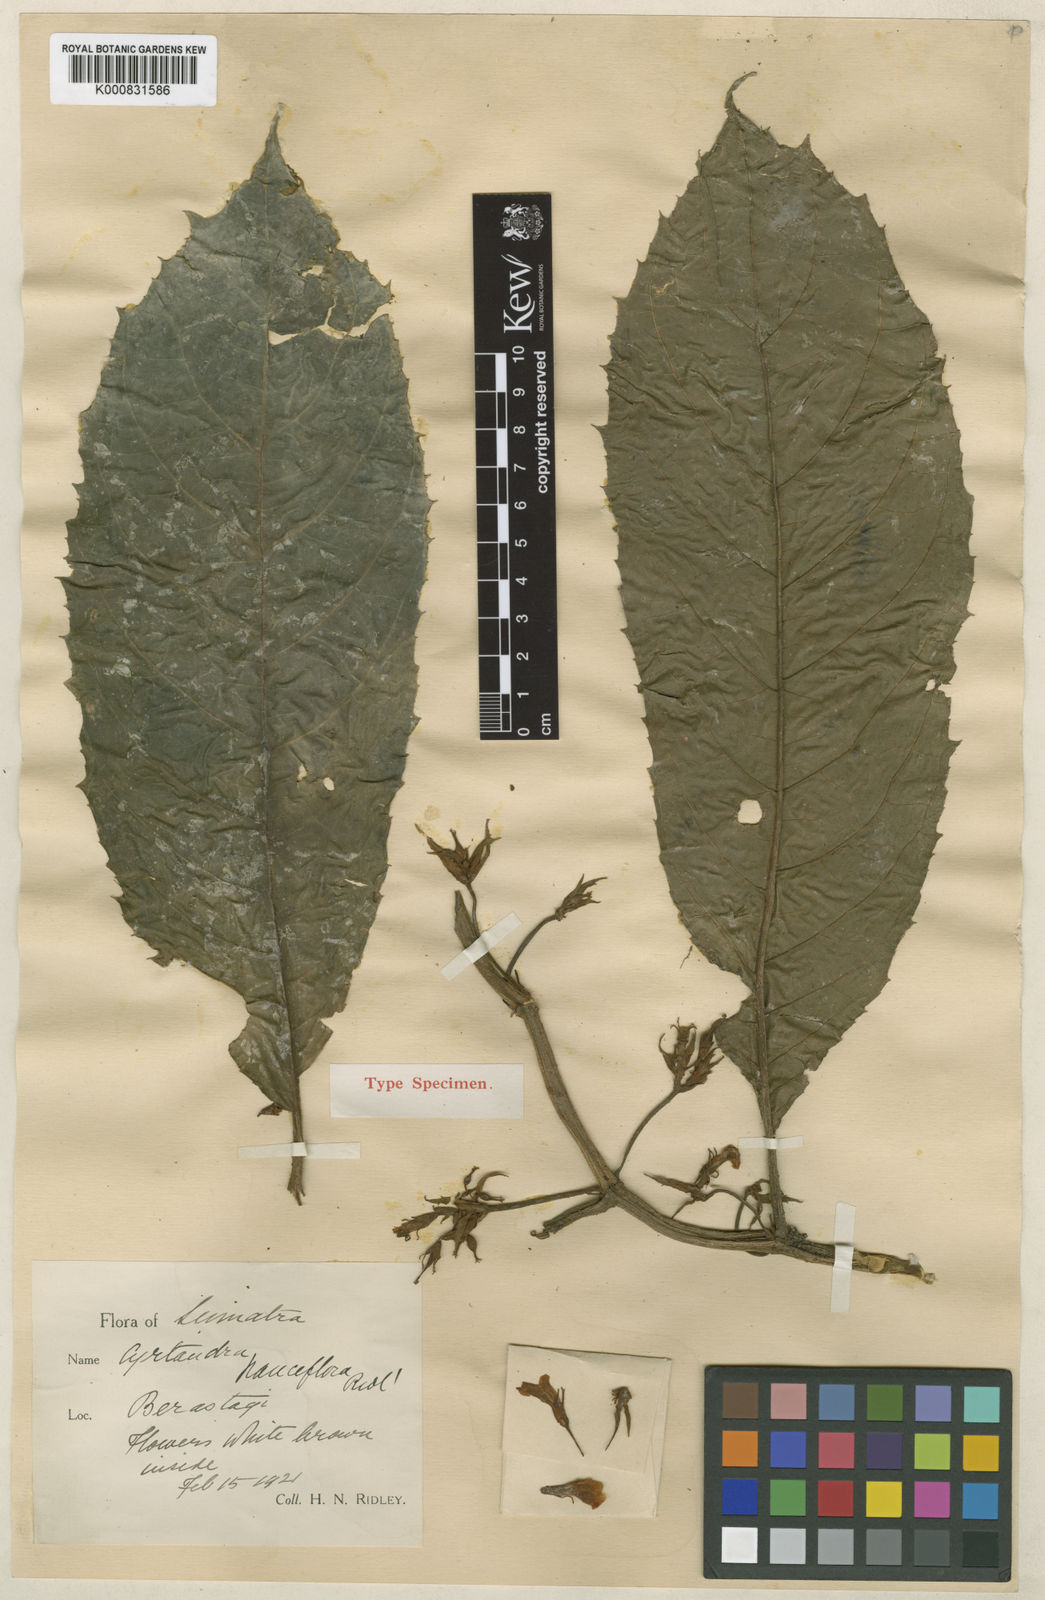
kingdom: Plantae
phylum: Tracheophyta
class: Magnoliopsida
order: Lamiales
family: Gesneriaceae
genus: Cyrtandra
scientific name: Cyrtandra pauciflora
